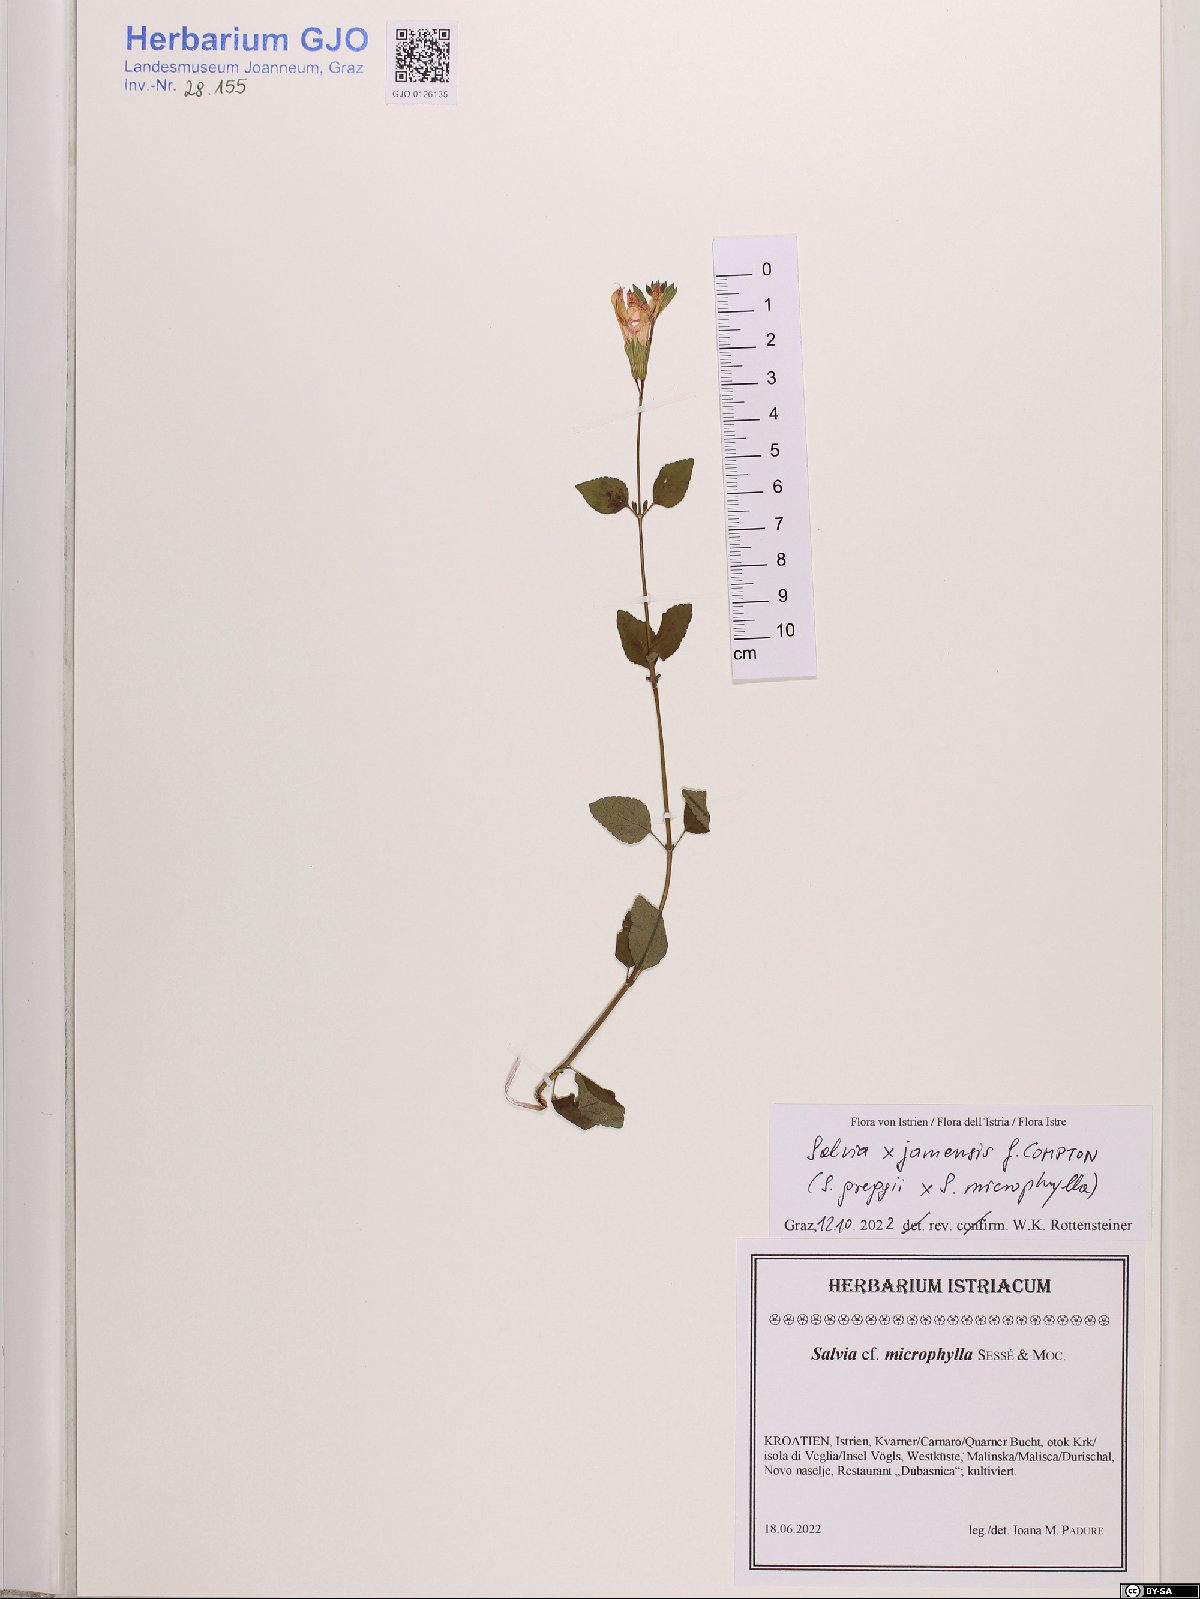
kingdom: Plantae
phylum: Tracheophyta
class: Magnoliopsida
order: Lamiales
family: Lamiaceae
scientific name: Lamiaceae
